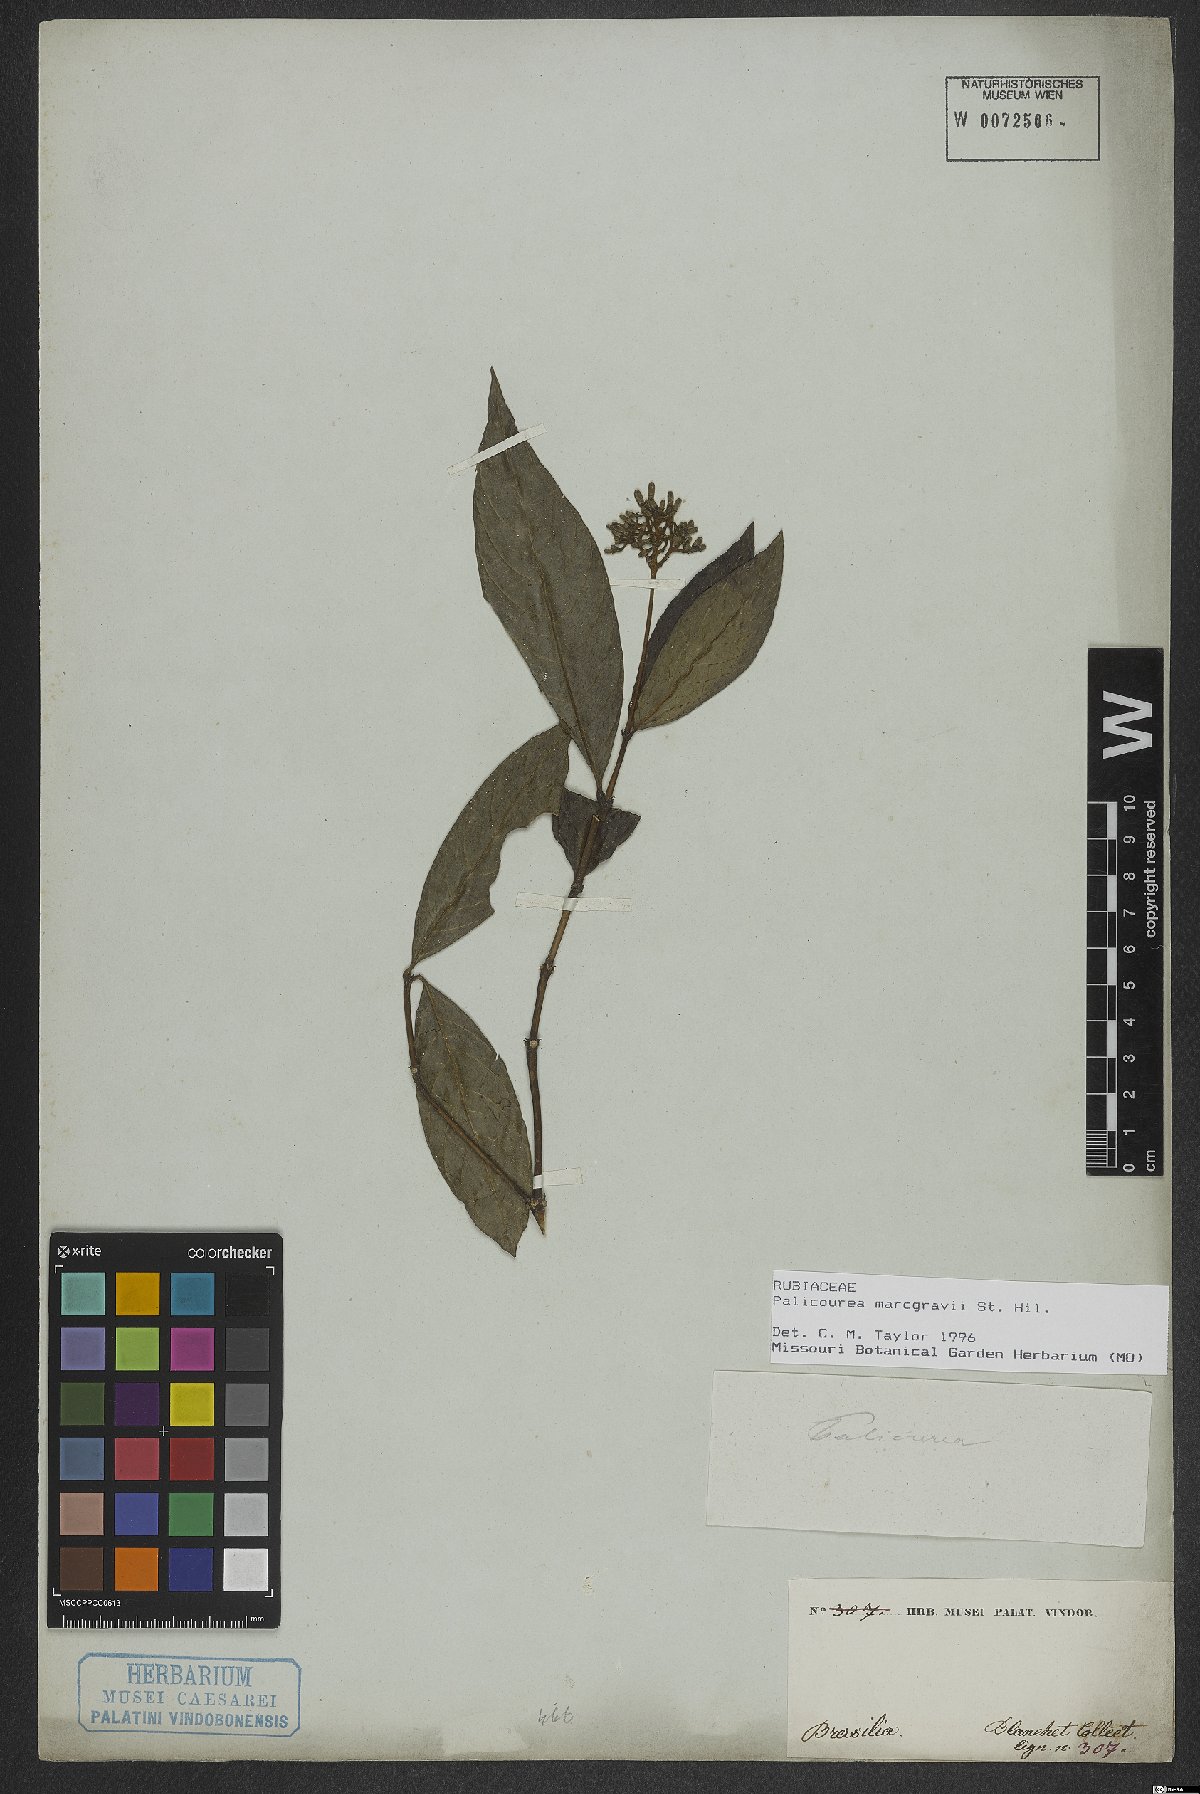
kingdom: Plantae
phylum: Tracheophyta
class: Magnoliopsida
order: Gentianales
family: Rubiaceae
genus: Palicourea
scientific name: Palicourea marcgravii
